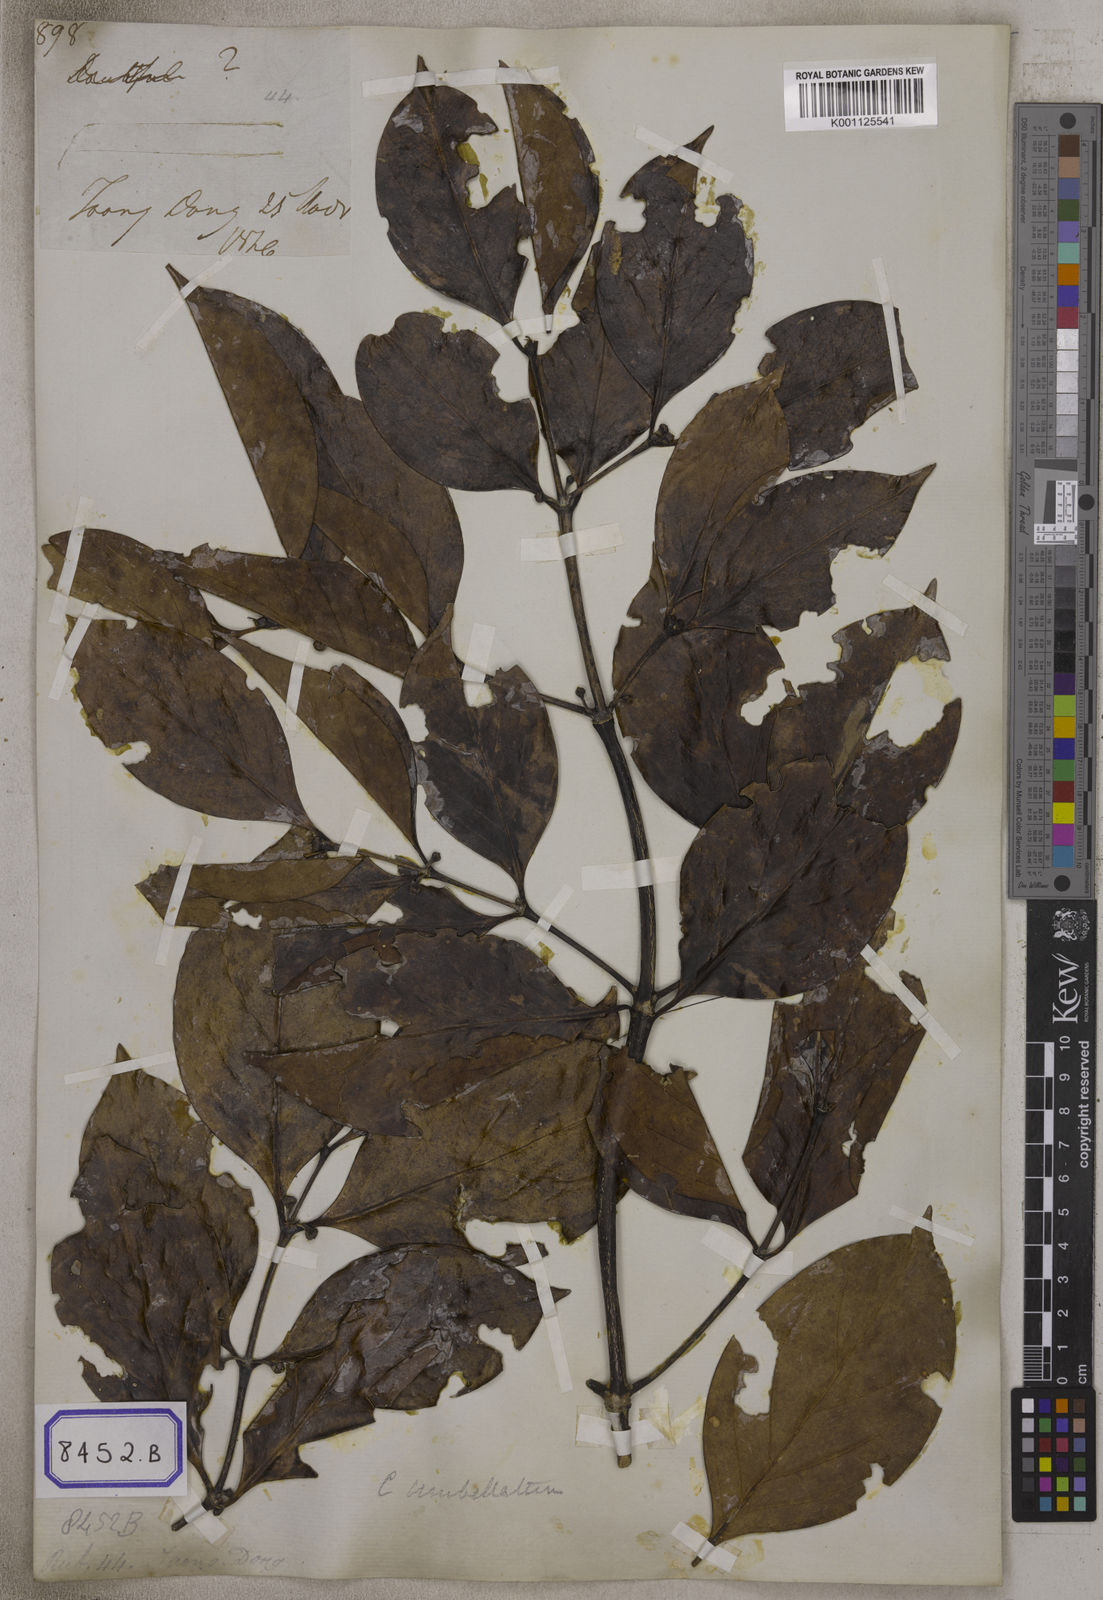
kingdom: Plantae
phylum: Tracheophyta
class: Magnoliopsida
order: Gentianales
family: Rubiaceae
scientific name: Rubiaceae
